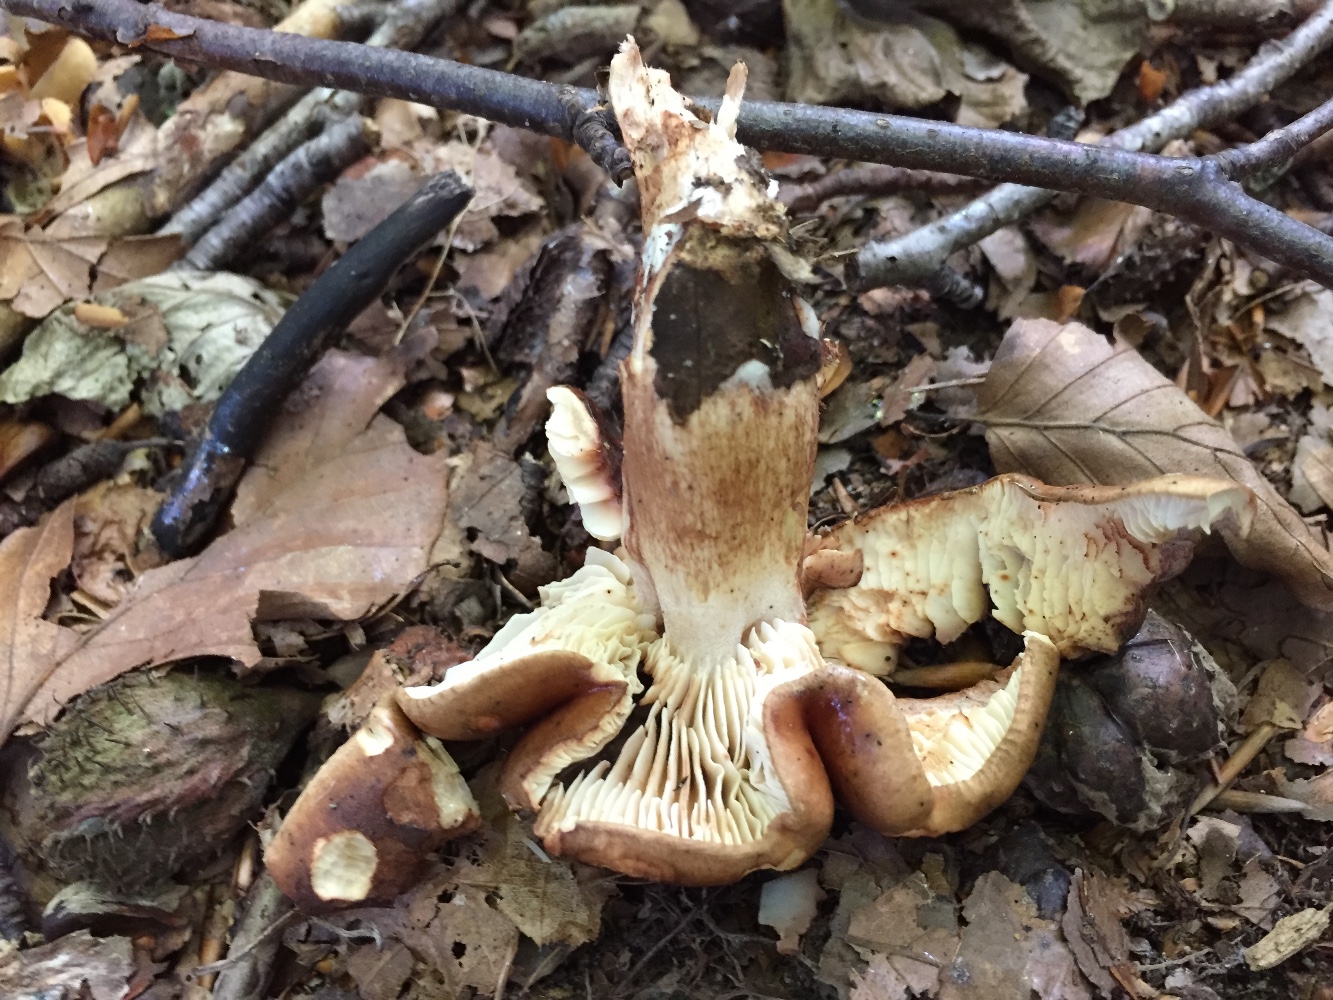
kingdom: Fungi
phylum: Basidiomycota
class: Agaricomycetes
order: Agaricales
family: Tricholomataceae
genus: Tricholoma
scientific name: Tricholoma ustale
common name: sveden ridderhat
